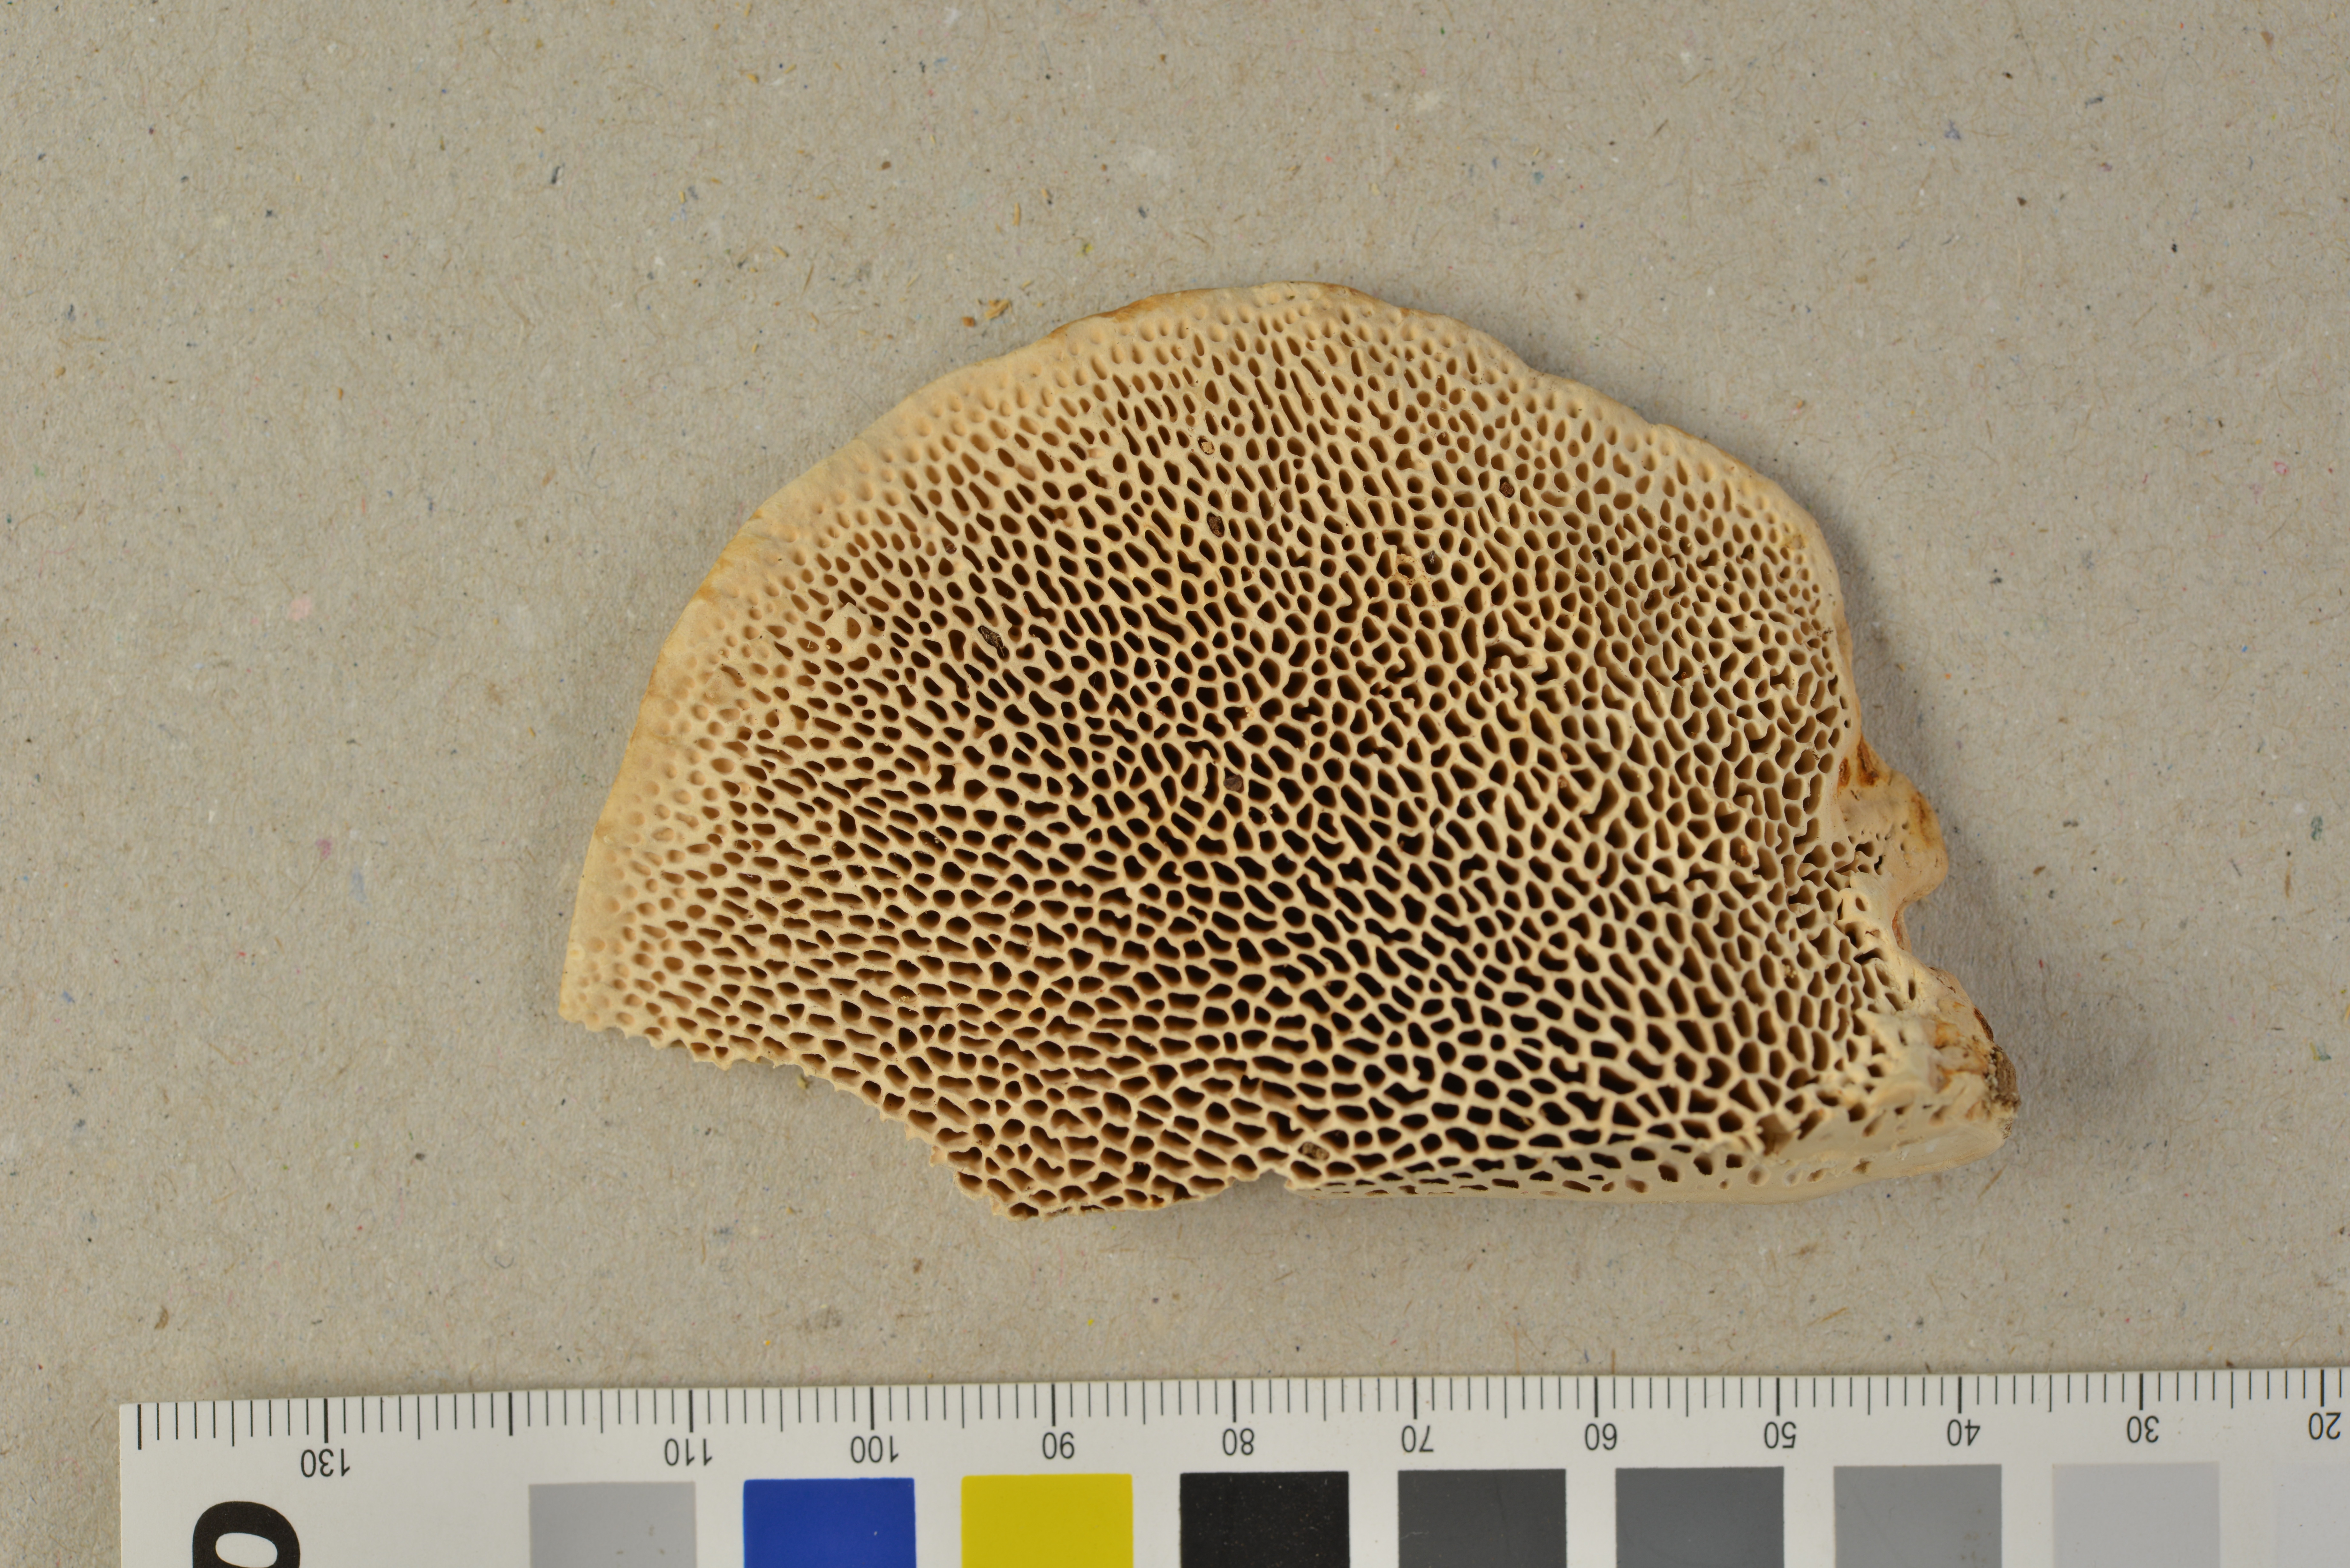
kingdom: Fungi
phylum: Basidiomycota
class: Agaricomycetes
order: Polyporales
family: Polyporaceae
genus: Trametes
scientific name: Trametes cystidiata
